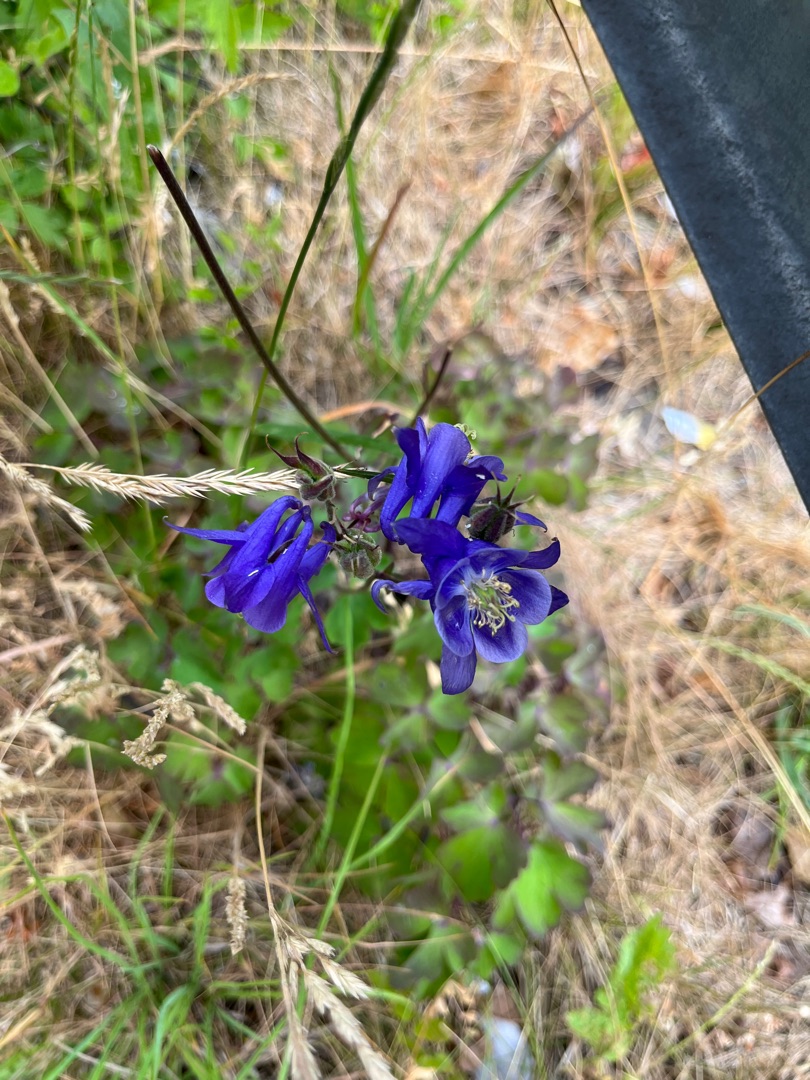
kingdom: Plantae
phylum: Tracheophyta
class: Magnoliopsida
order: Ranunculales
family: Ranunculaceae
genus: Aquilegia
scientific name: Aquilegia vulgaris
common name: Akeleje
